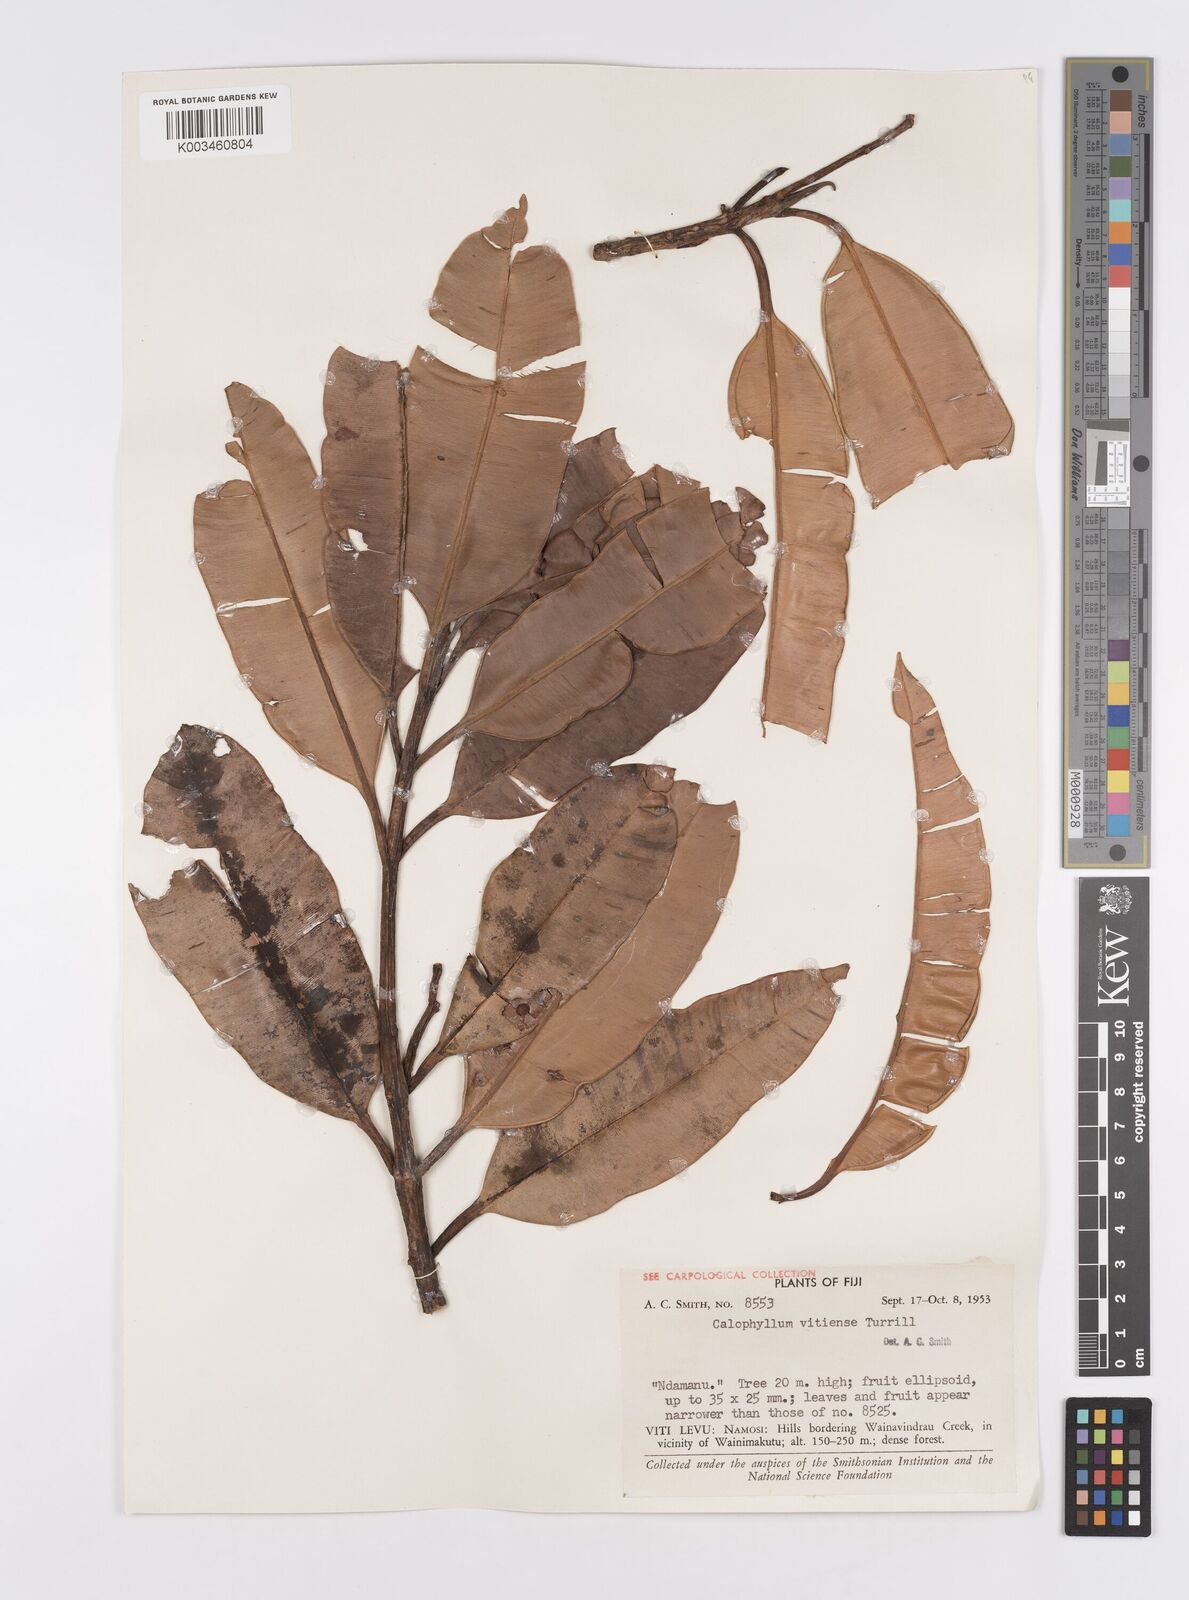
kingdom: Plantae
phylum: Tracheophyta
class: Magnoliopsida
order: Malpighiales
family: Calophyllaceae
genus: Calophyllum
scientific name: Calophyllum cerasiferum
